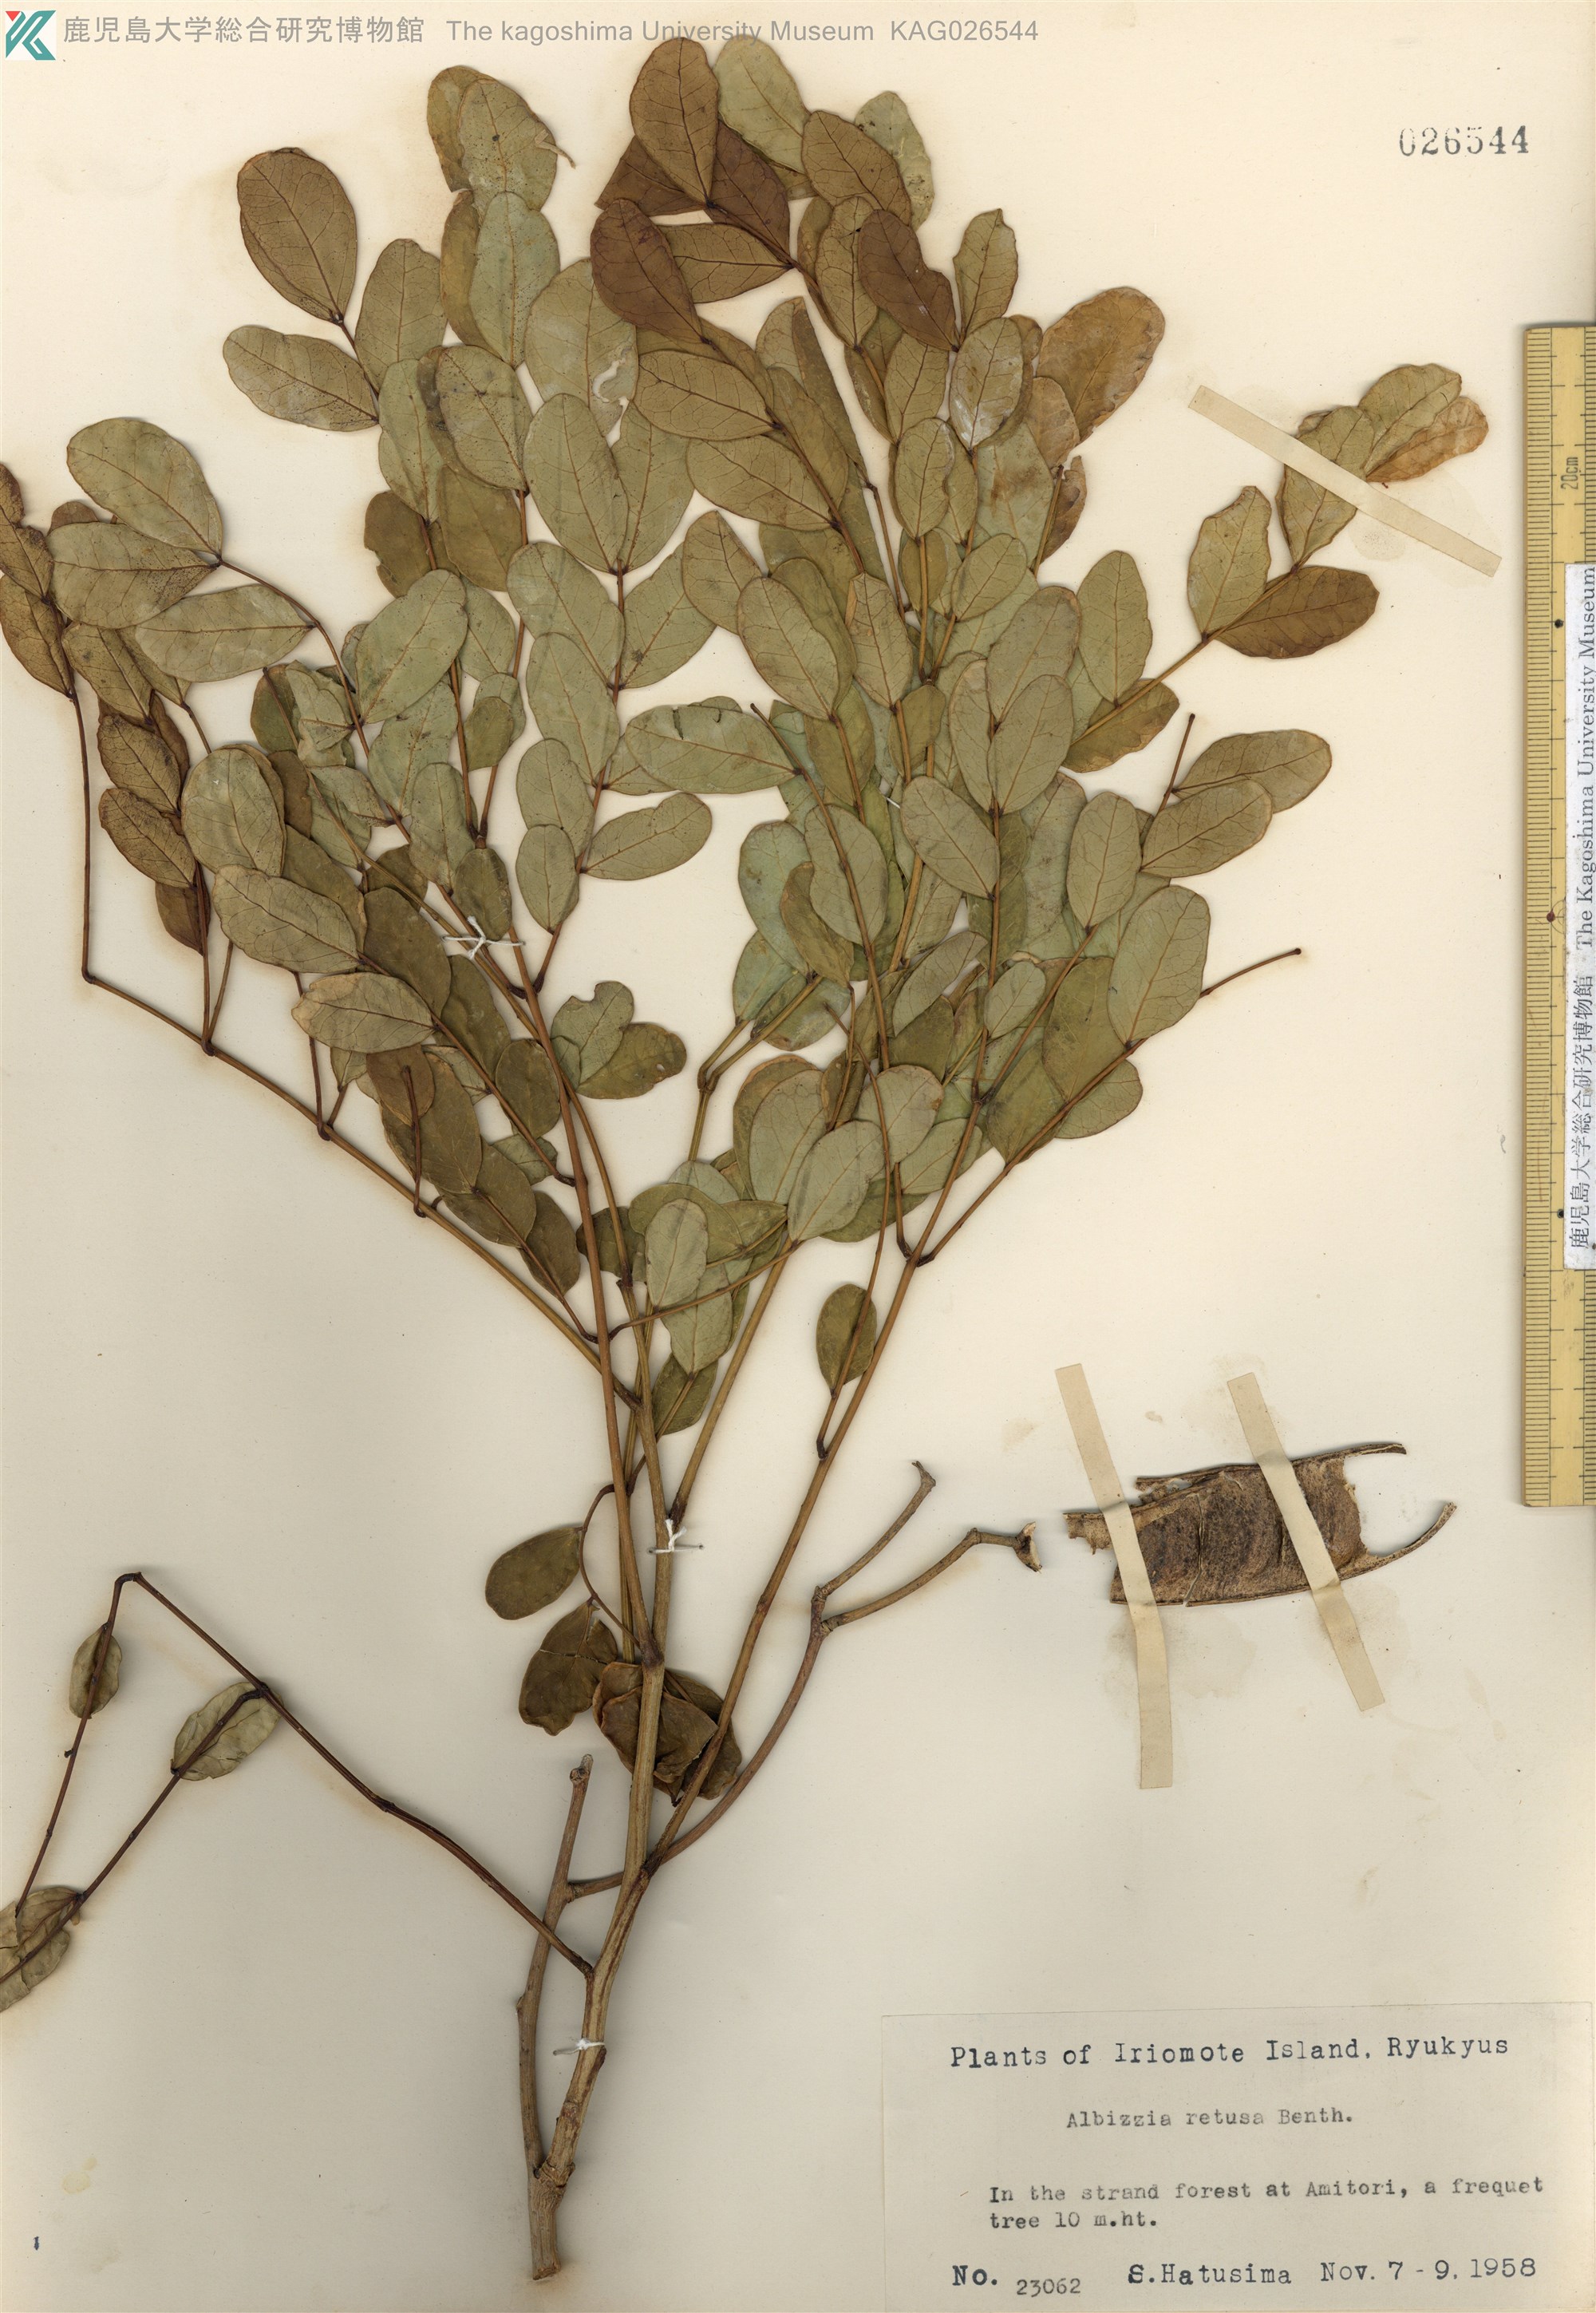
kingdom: Plantae
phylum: Tracheophyta
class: Magnoliopsida
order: Fabales
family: Fabaceae
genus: Albizia
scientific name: Albizia retusa
